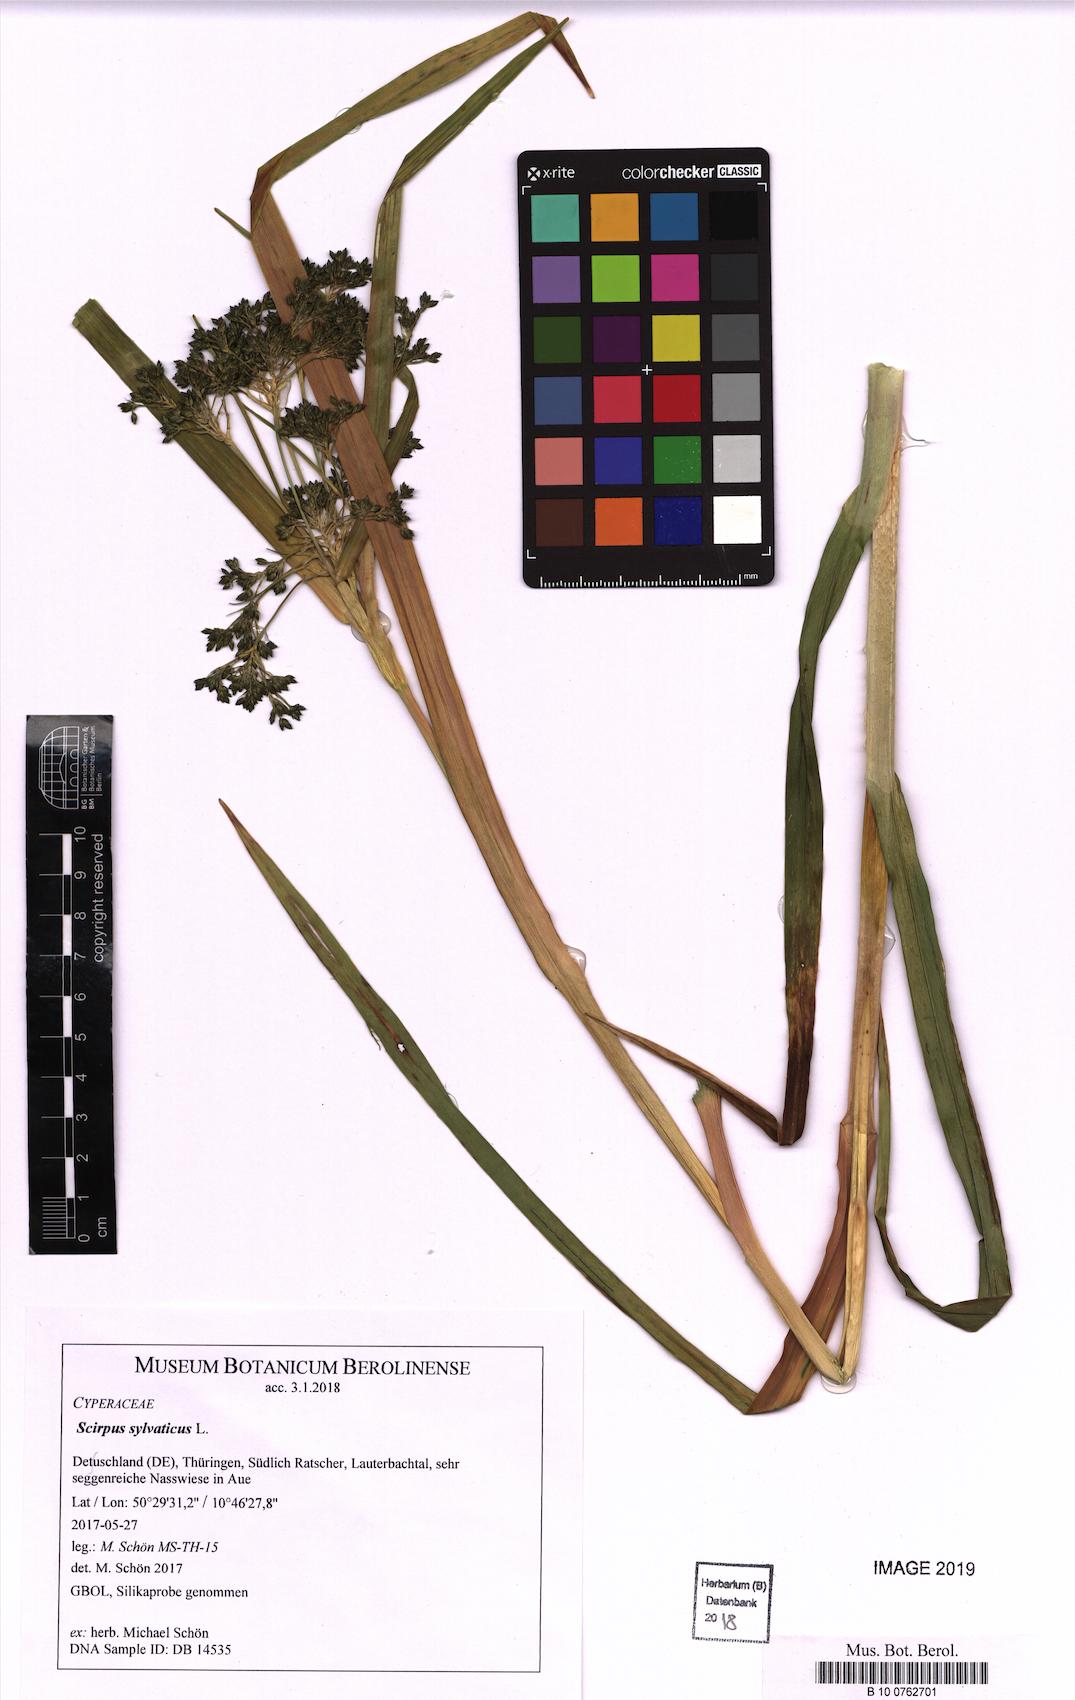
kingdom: Plantae
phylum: Tracheophyta
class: Liliopsida
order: Poales
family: Cyperaceae
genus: Scirpus
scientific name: Scirpus sylvaticus
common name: Wood club-rush
